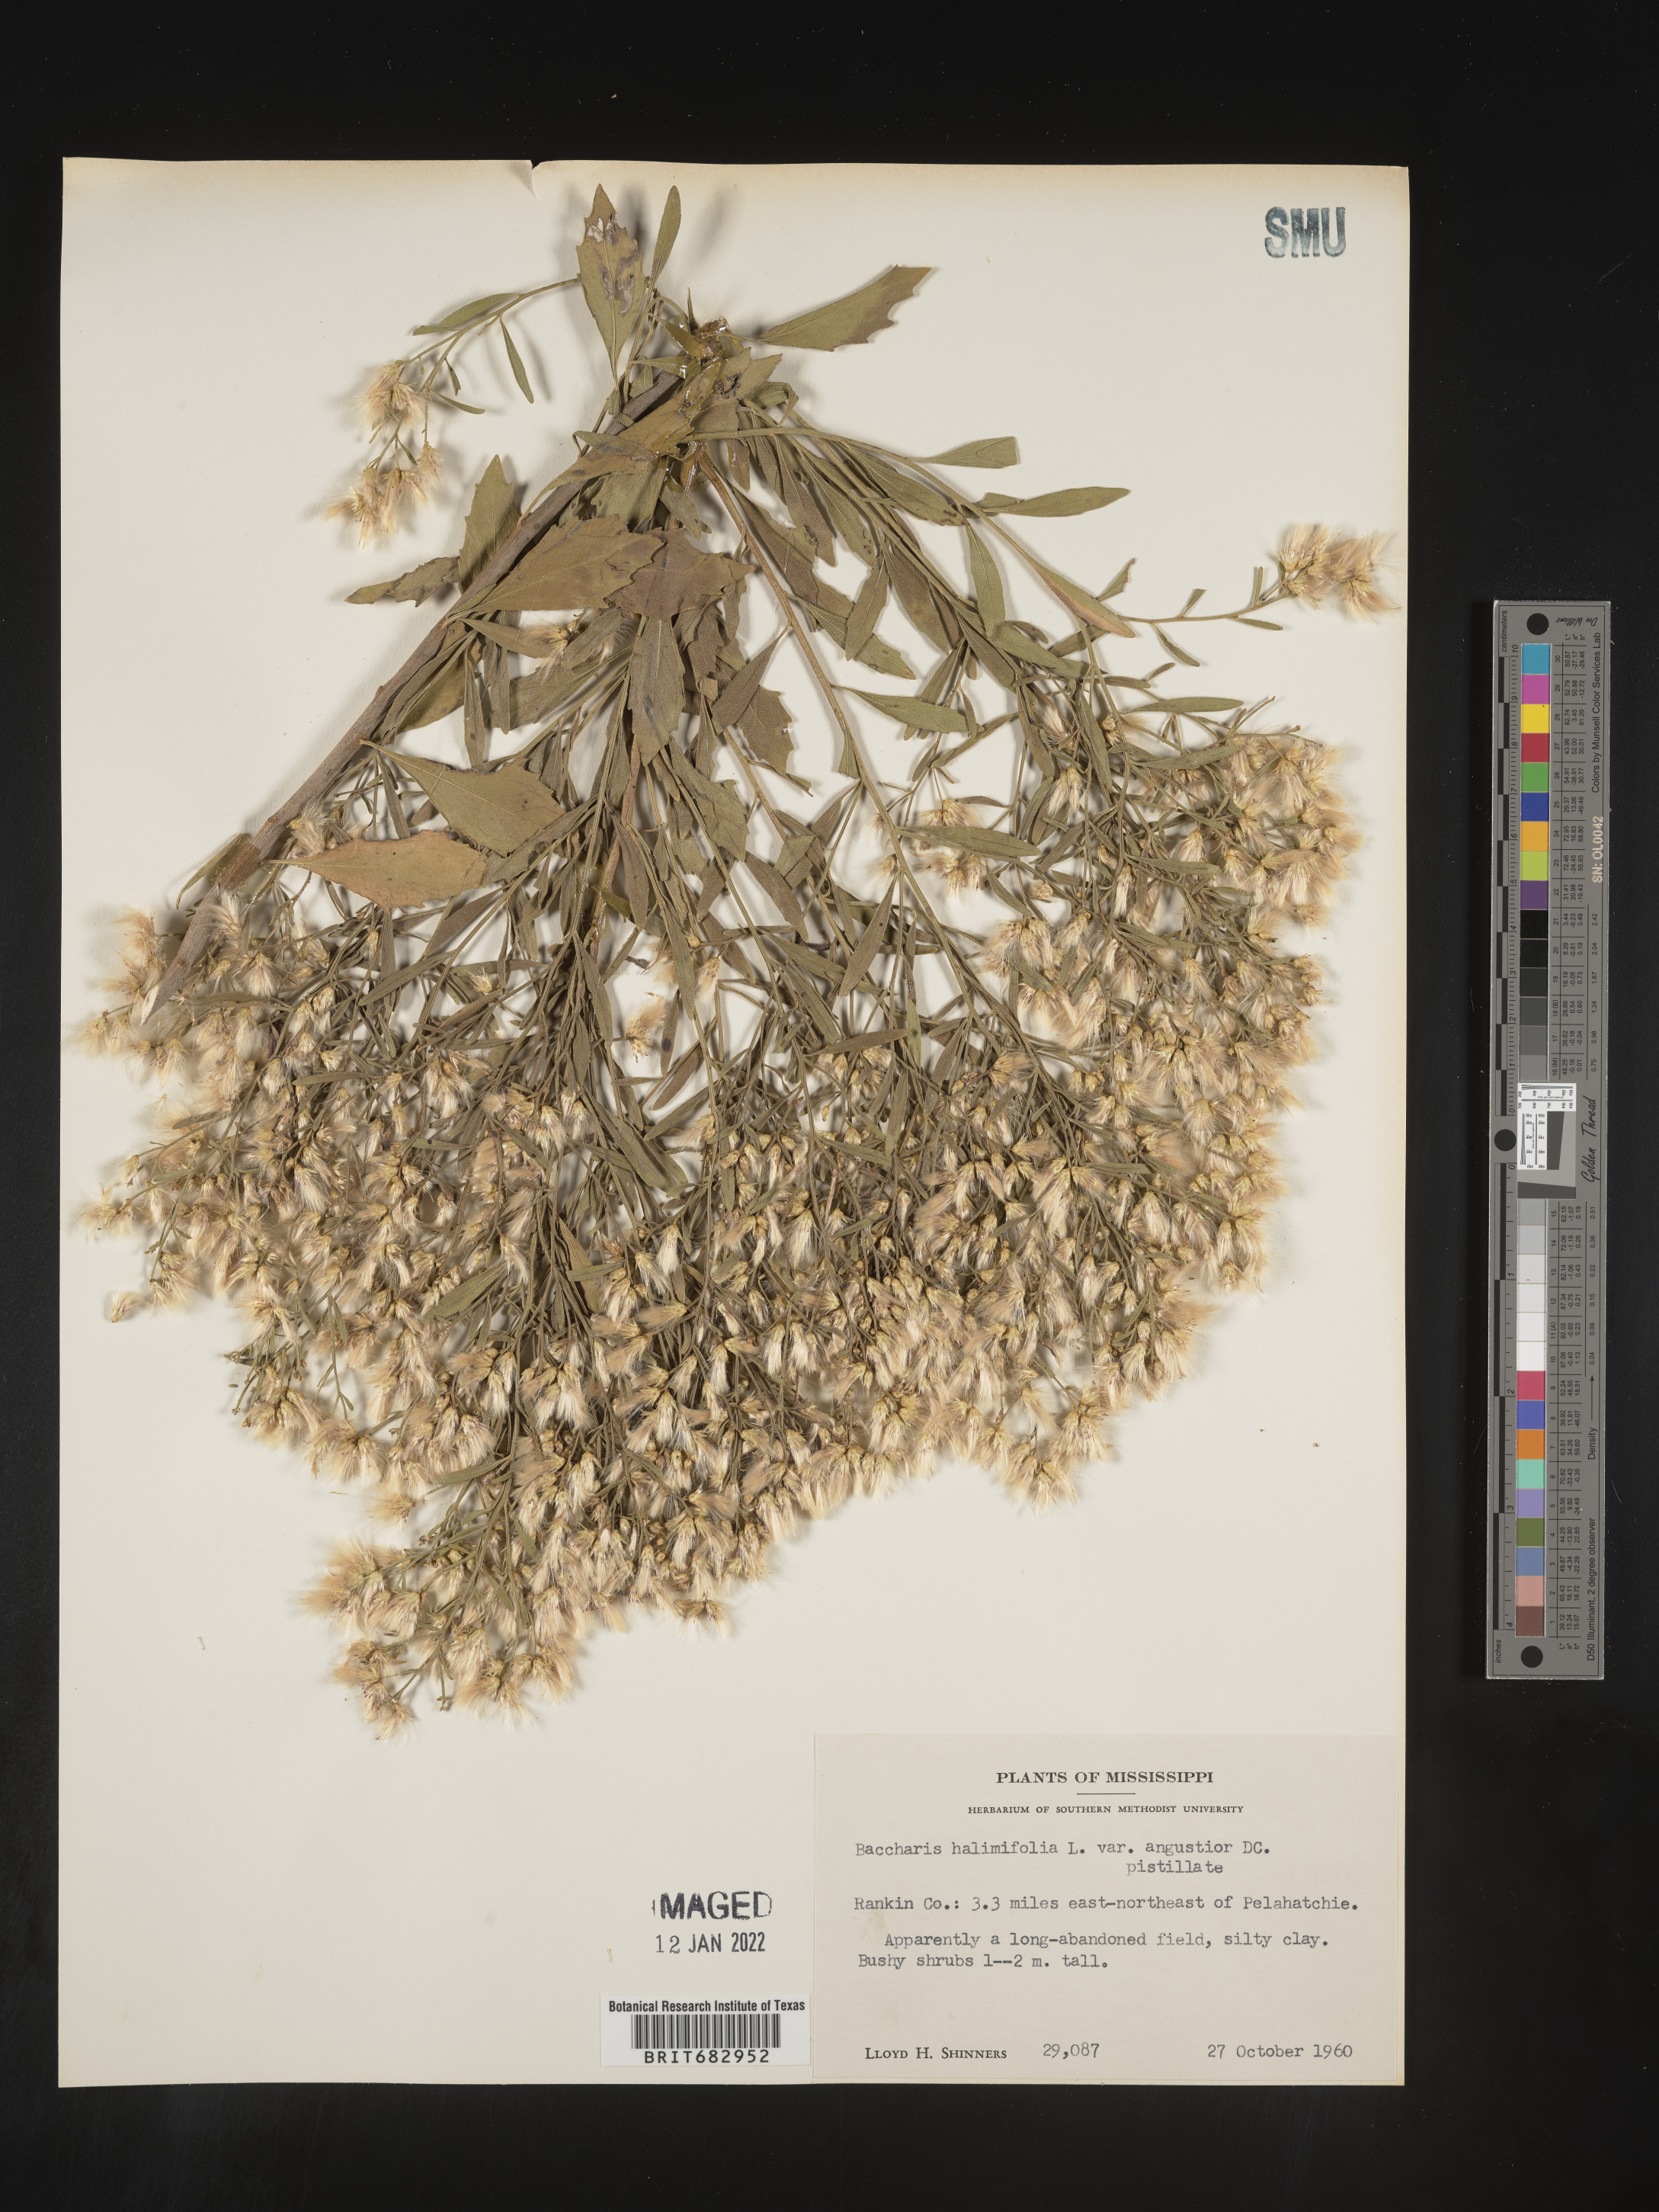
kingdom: Plantae
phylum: Tracheophyta
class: Magnoliopsida
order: Asterales
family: Asteraceae
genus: Nidorella
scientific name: Nidorella ivifolia
